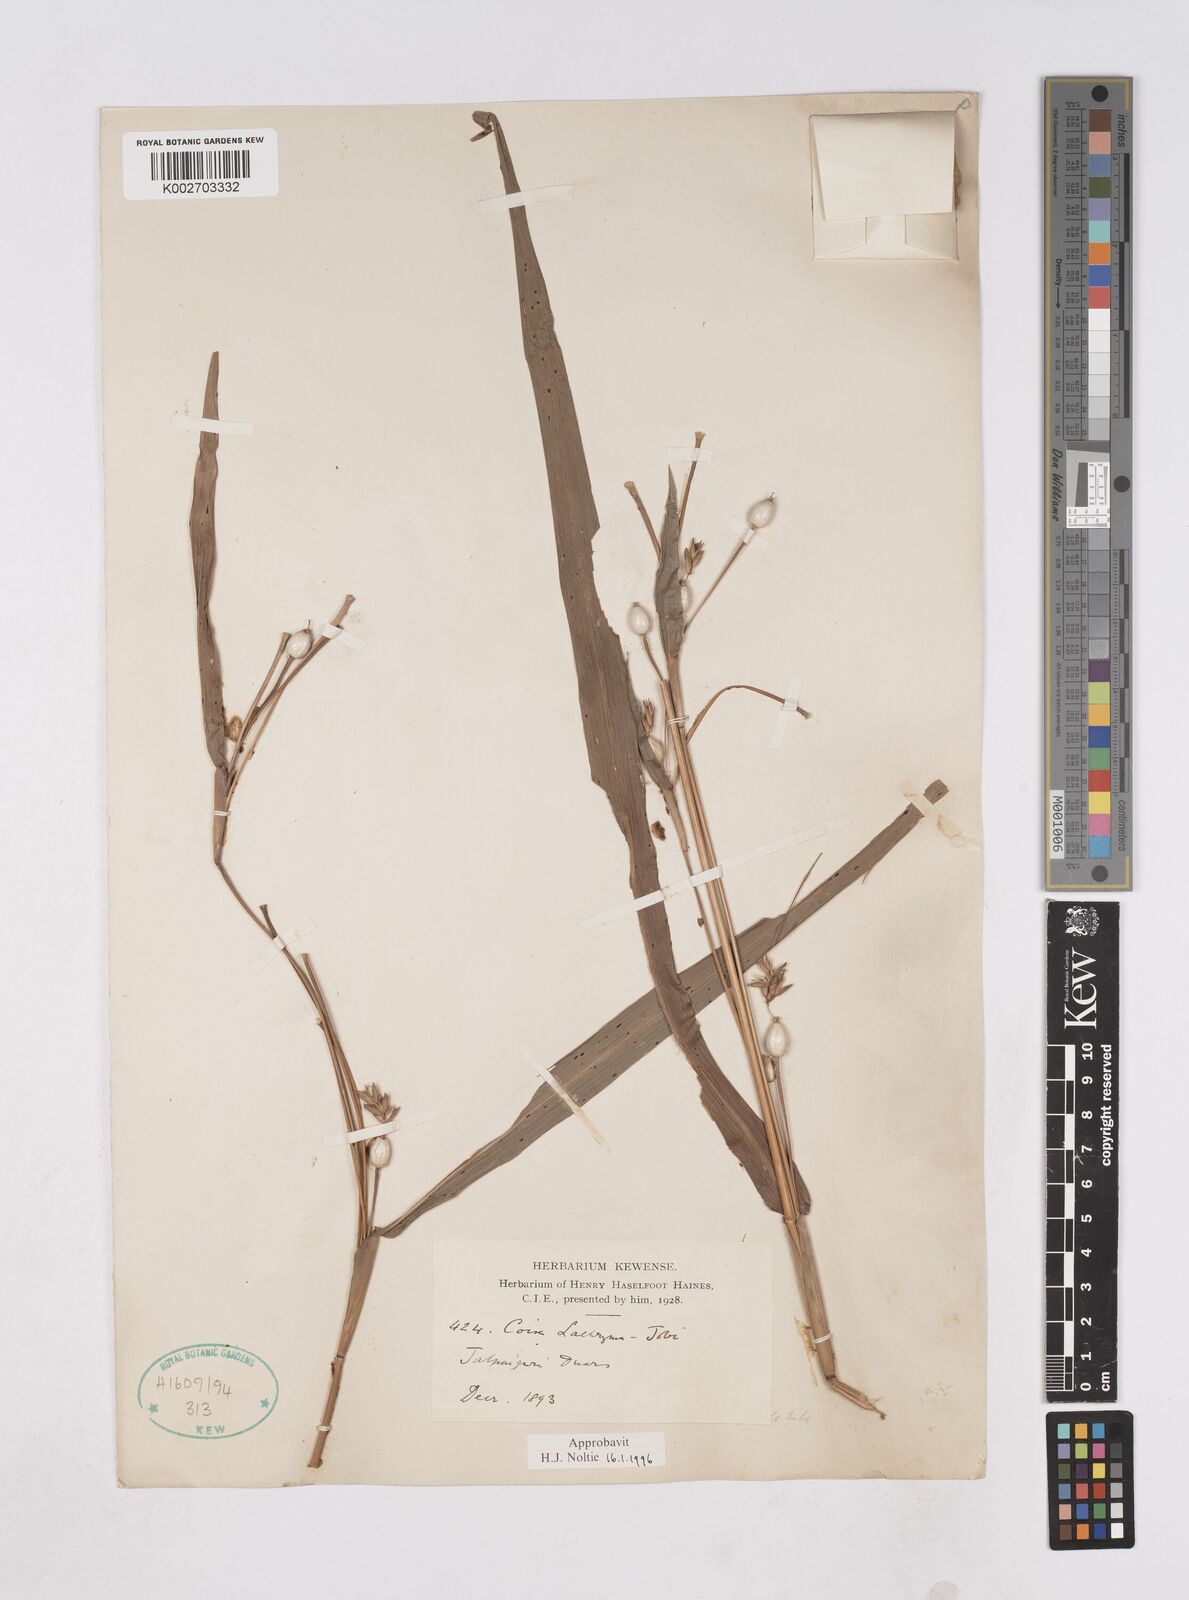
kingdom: Plantae
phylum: Tracheophyta
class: Liliopsida
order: Poales
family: Poaceae
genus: Coix
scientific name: Coix lacryma-jobi
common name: Job's tears
